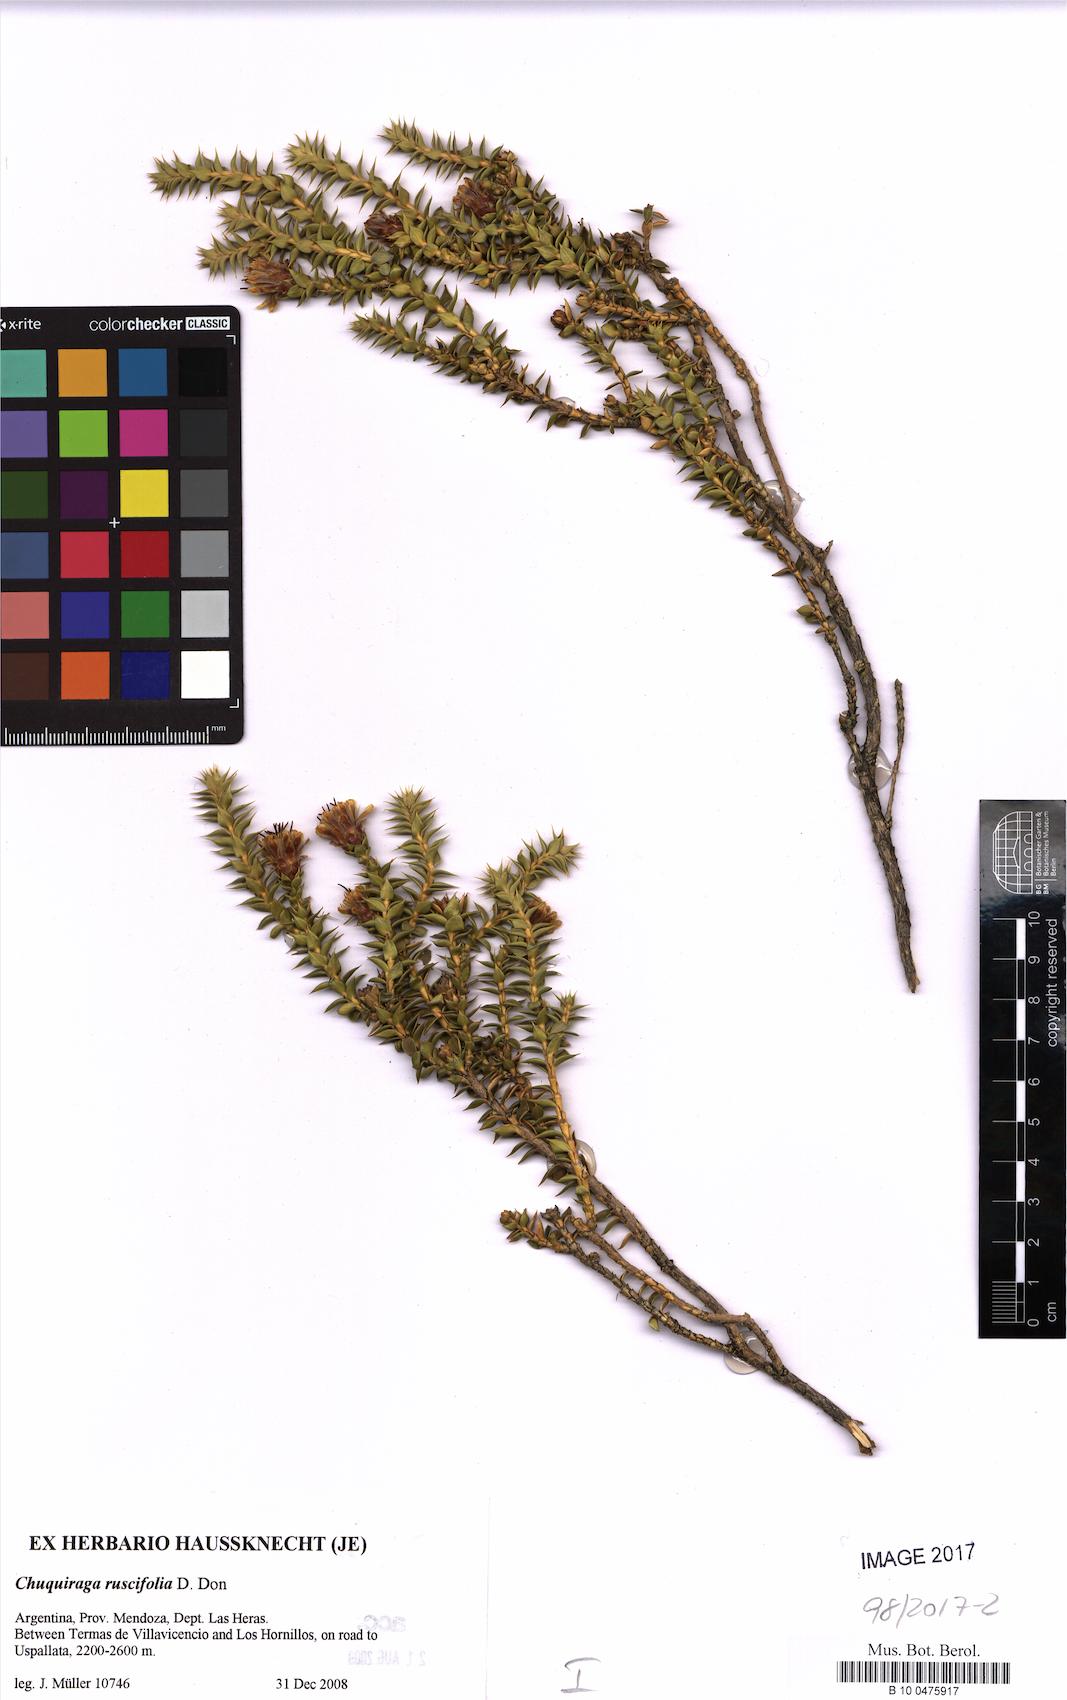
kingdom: Plantae
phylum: Tracheophyta
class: Magnoliopsida
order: Asterales
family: Asteraceae
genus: Chuquiraga
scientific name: Chuquiraga ruscifolia
